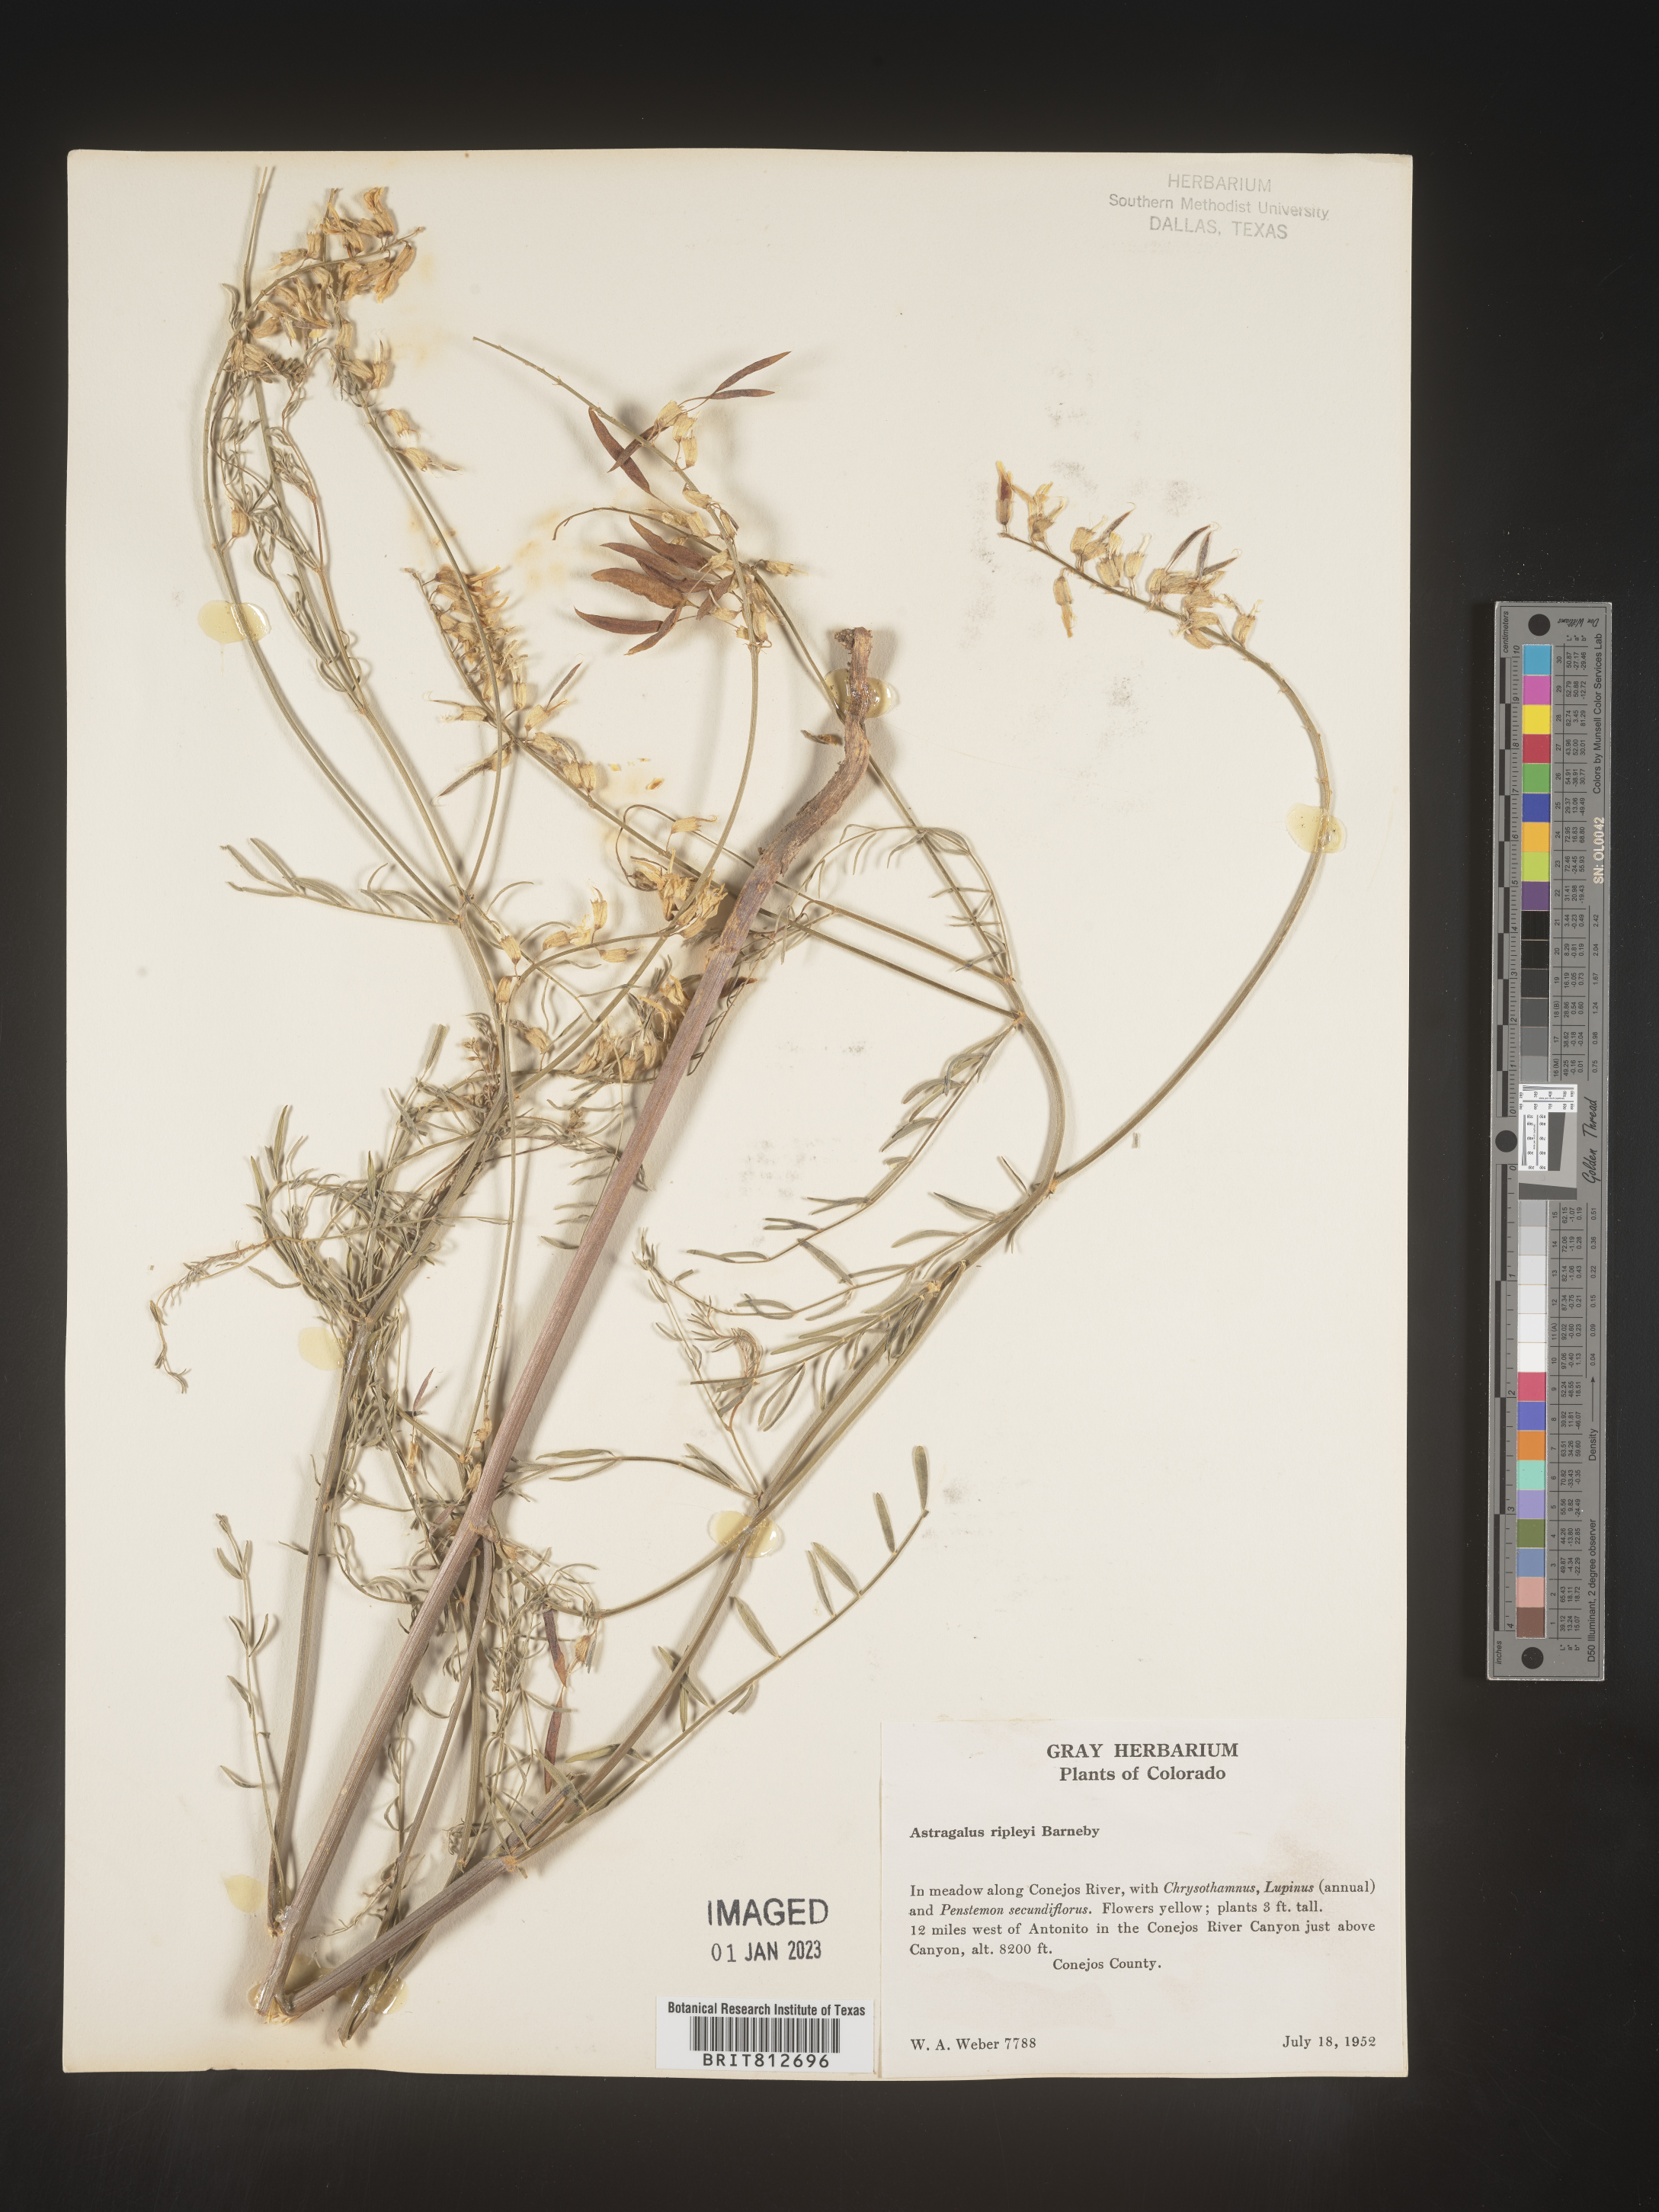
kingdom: Plantae
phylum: Tracheophyta
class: Magnoliopsida
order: Fabales
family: Fabaceae
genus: Astragalus
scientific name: Astragalus
